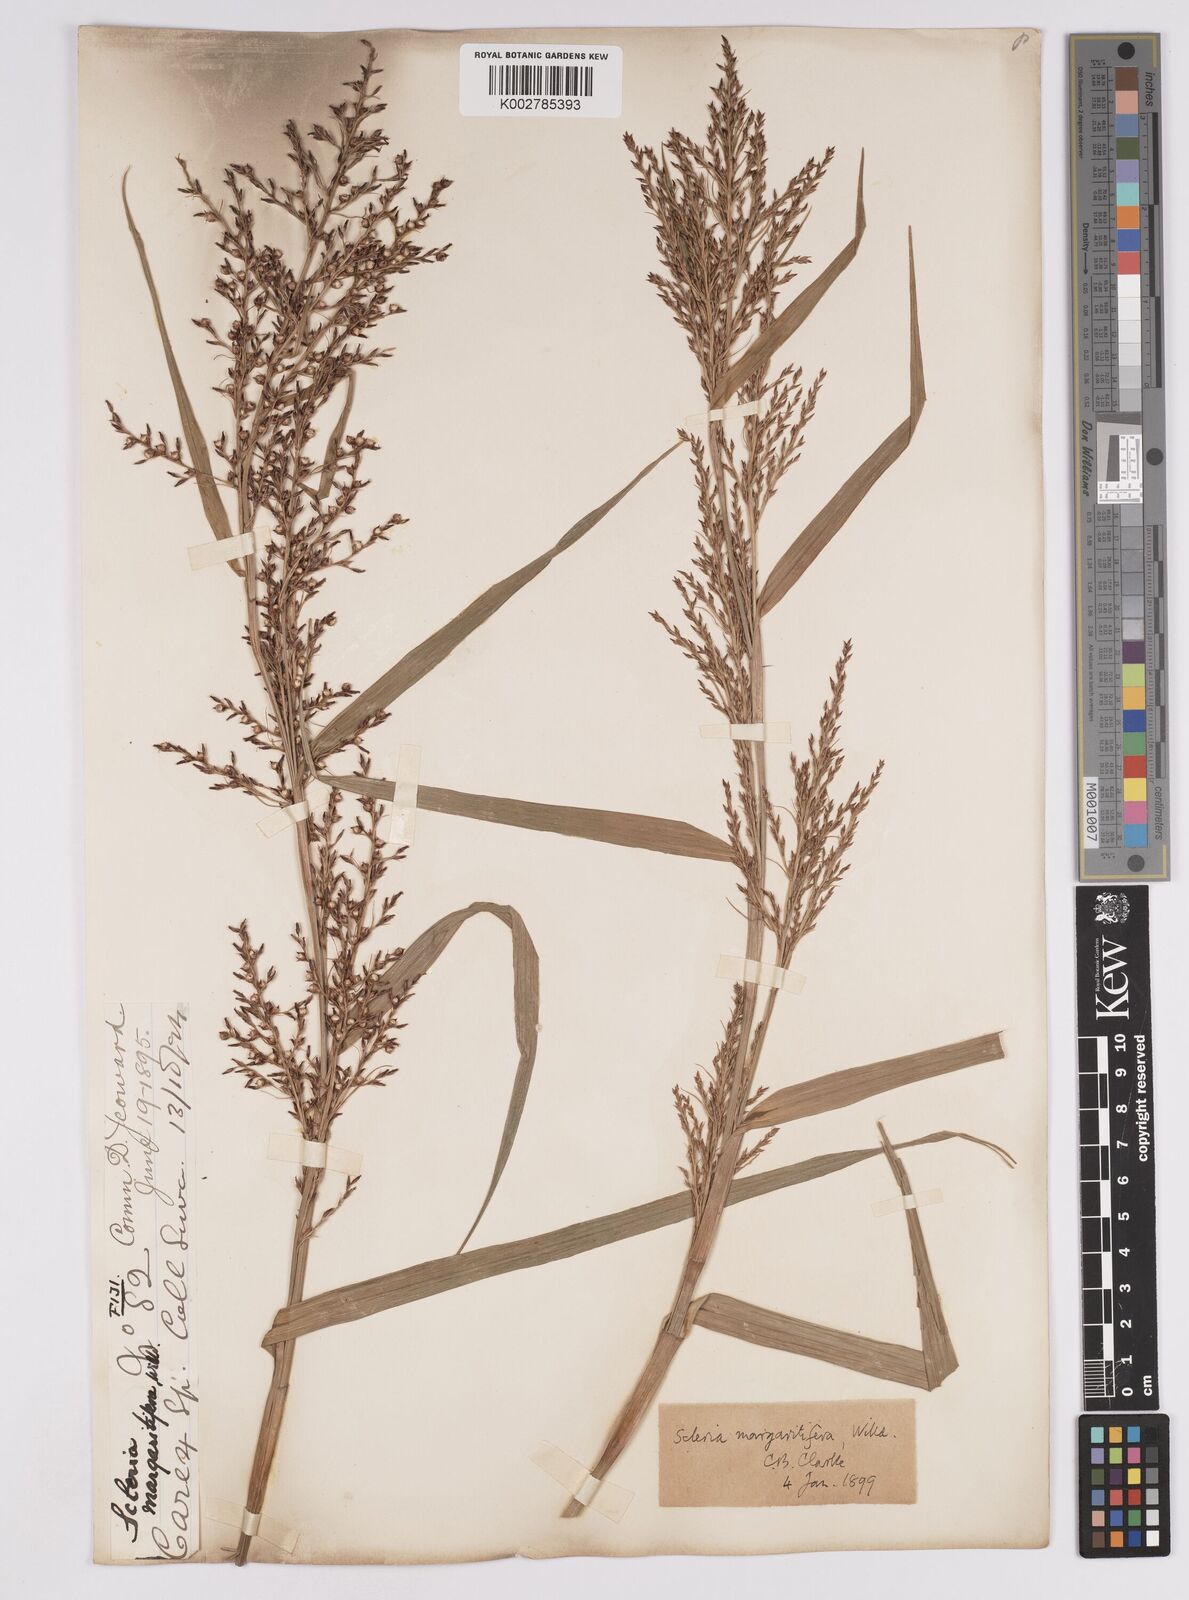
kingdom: Plantae
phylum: Tracheophyta
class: Liliopsida
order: Poales
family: Cyperaceae
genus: Scleria
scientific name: Scleria polycarpa
